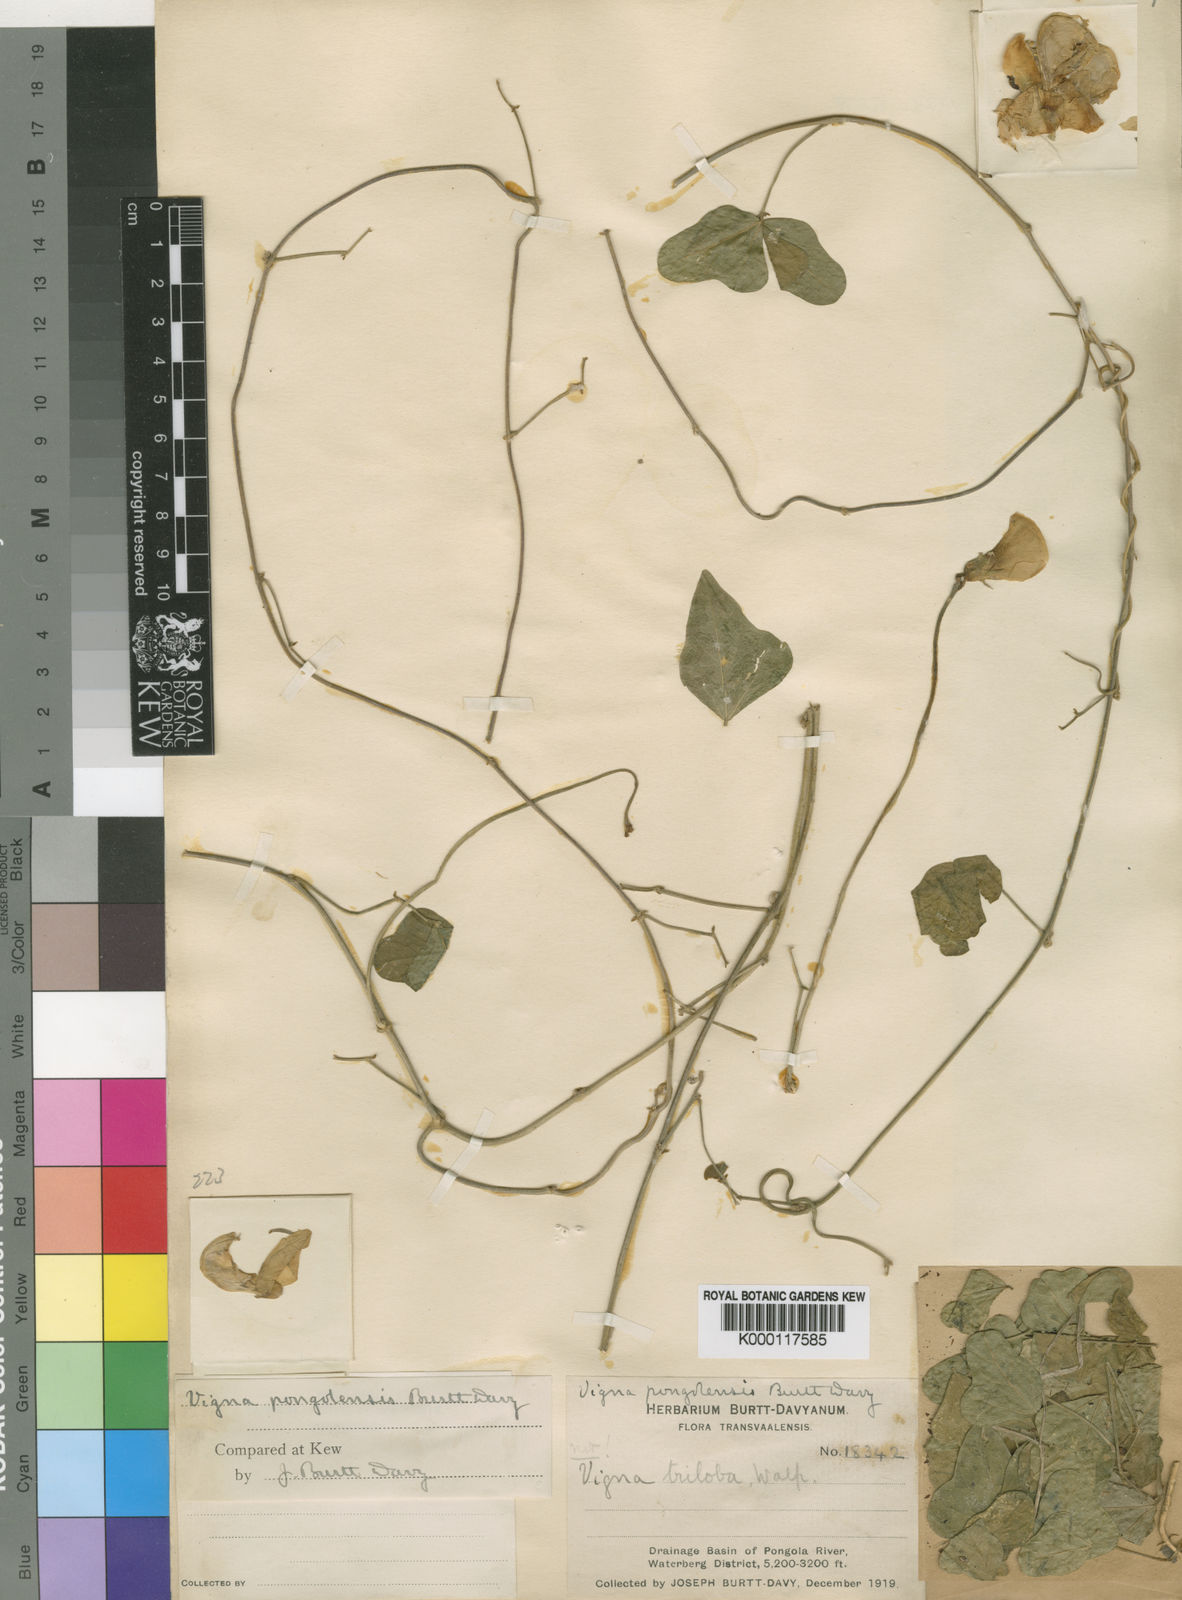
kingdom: Plantae
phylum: Tracheophyta
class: Magnoliopsida
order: Fabales
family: Fabaceae
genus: Vigna
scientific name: Vigna
